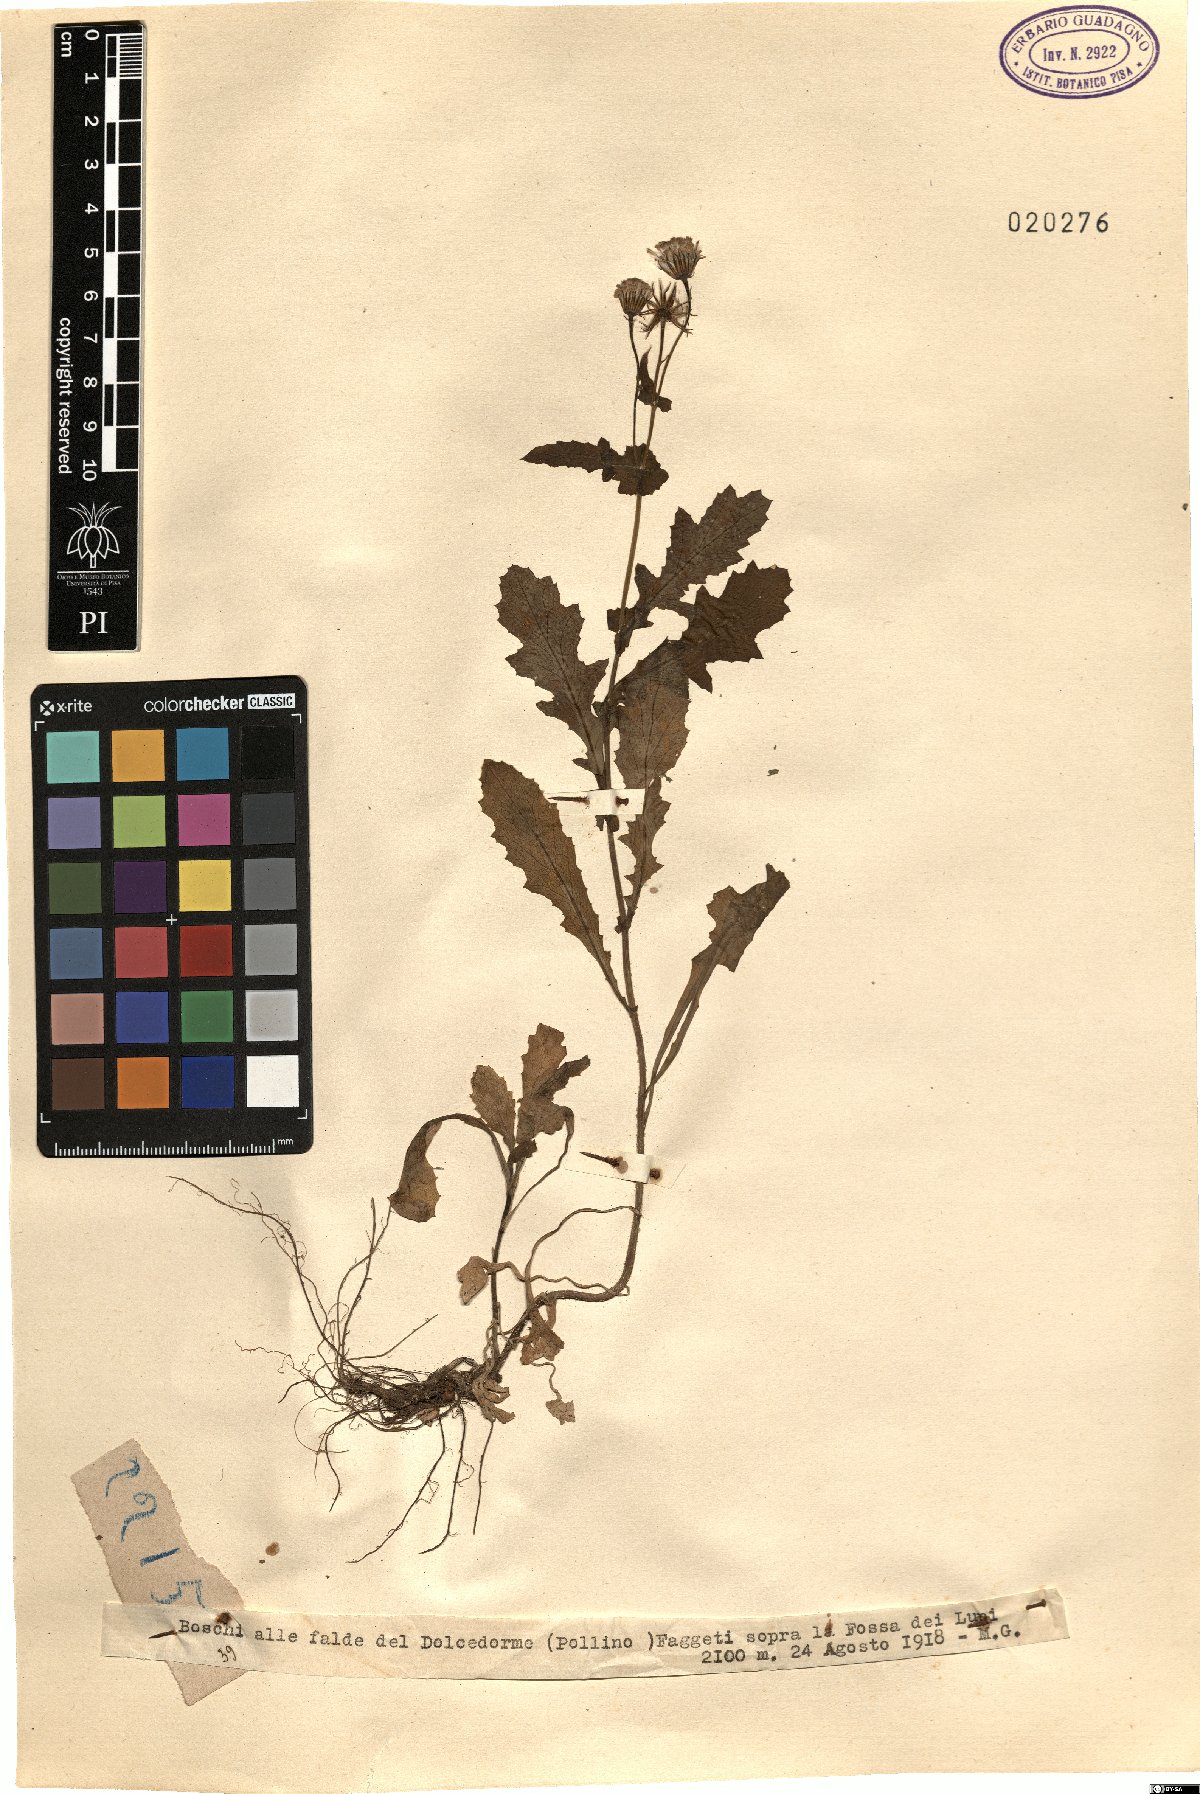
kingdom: Plantae
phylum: Tracheophyta
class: Magnoliopsida
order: Asterales
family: Asteraceae
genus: Senecio
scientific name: Senecio
